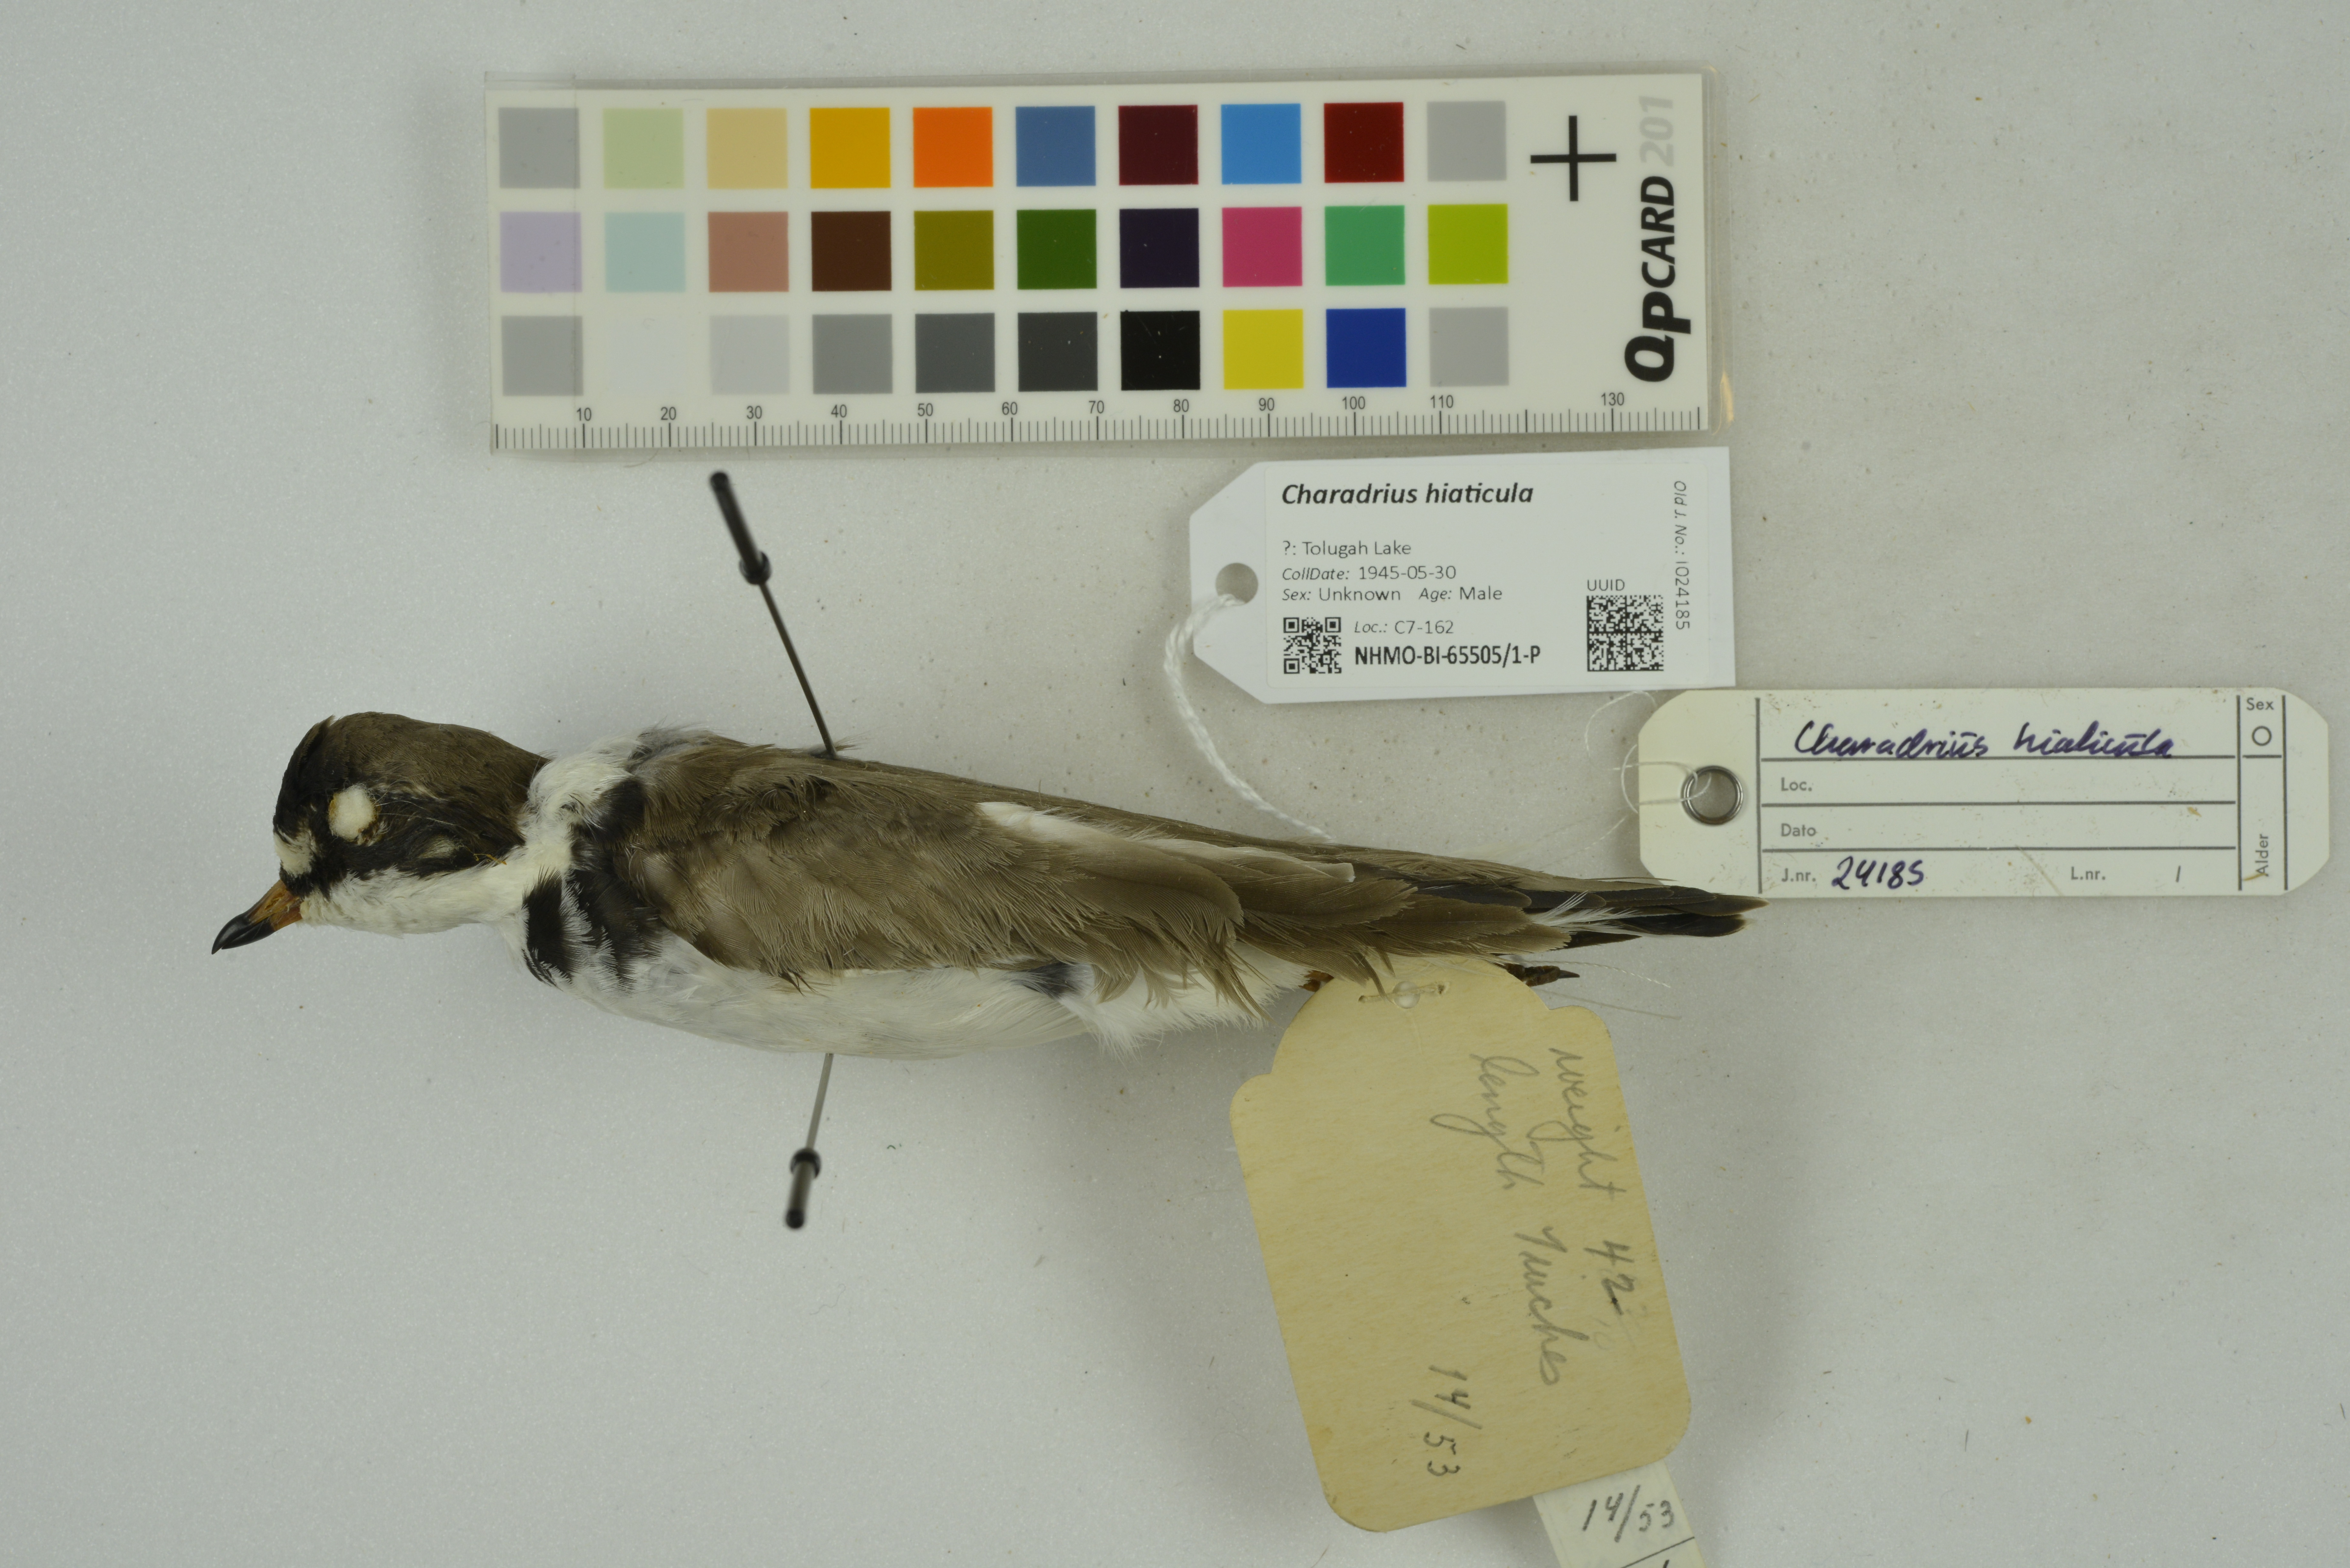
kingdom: Animalia
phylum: Chordata
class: Aves
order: Charadriiformes
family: Charadriidae
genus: Charadrius
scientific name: Charadrius hiaticula
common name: Common ringed plover
